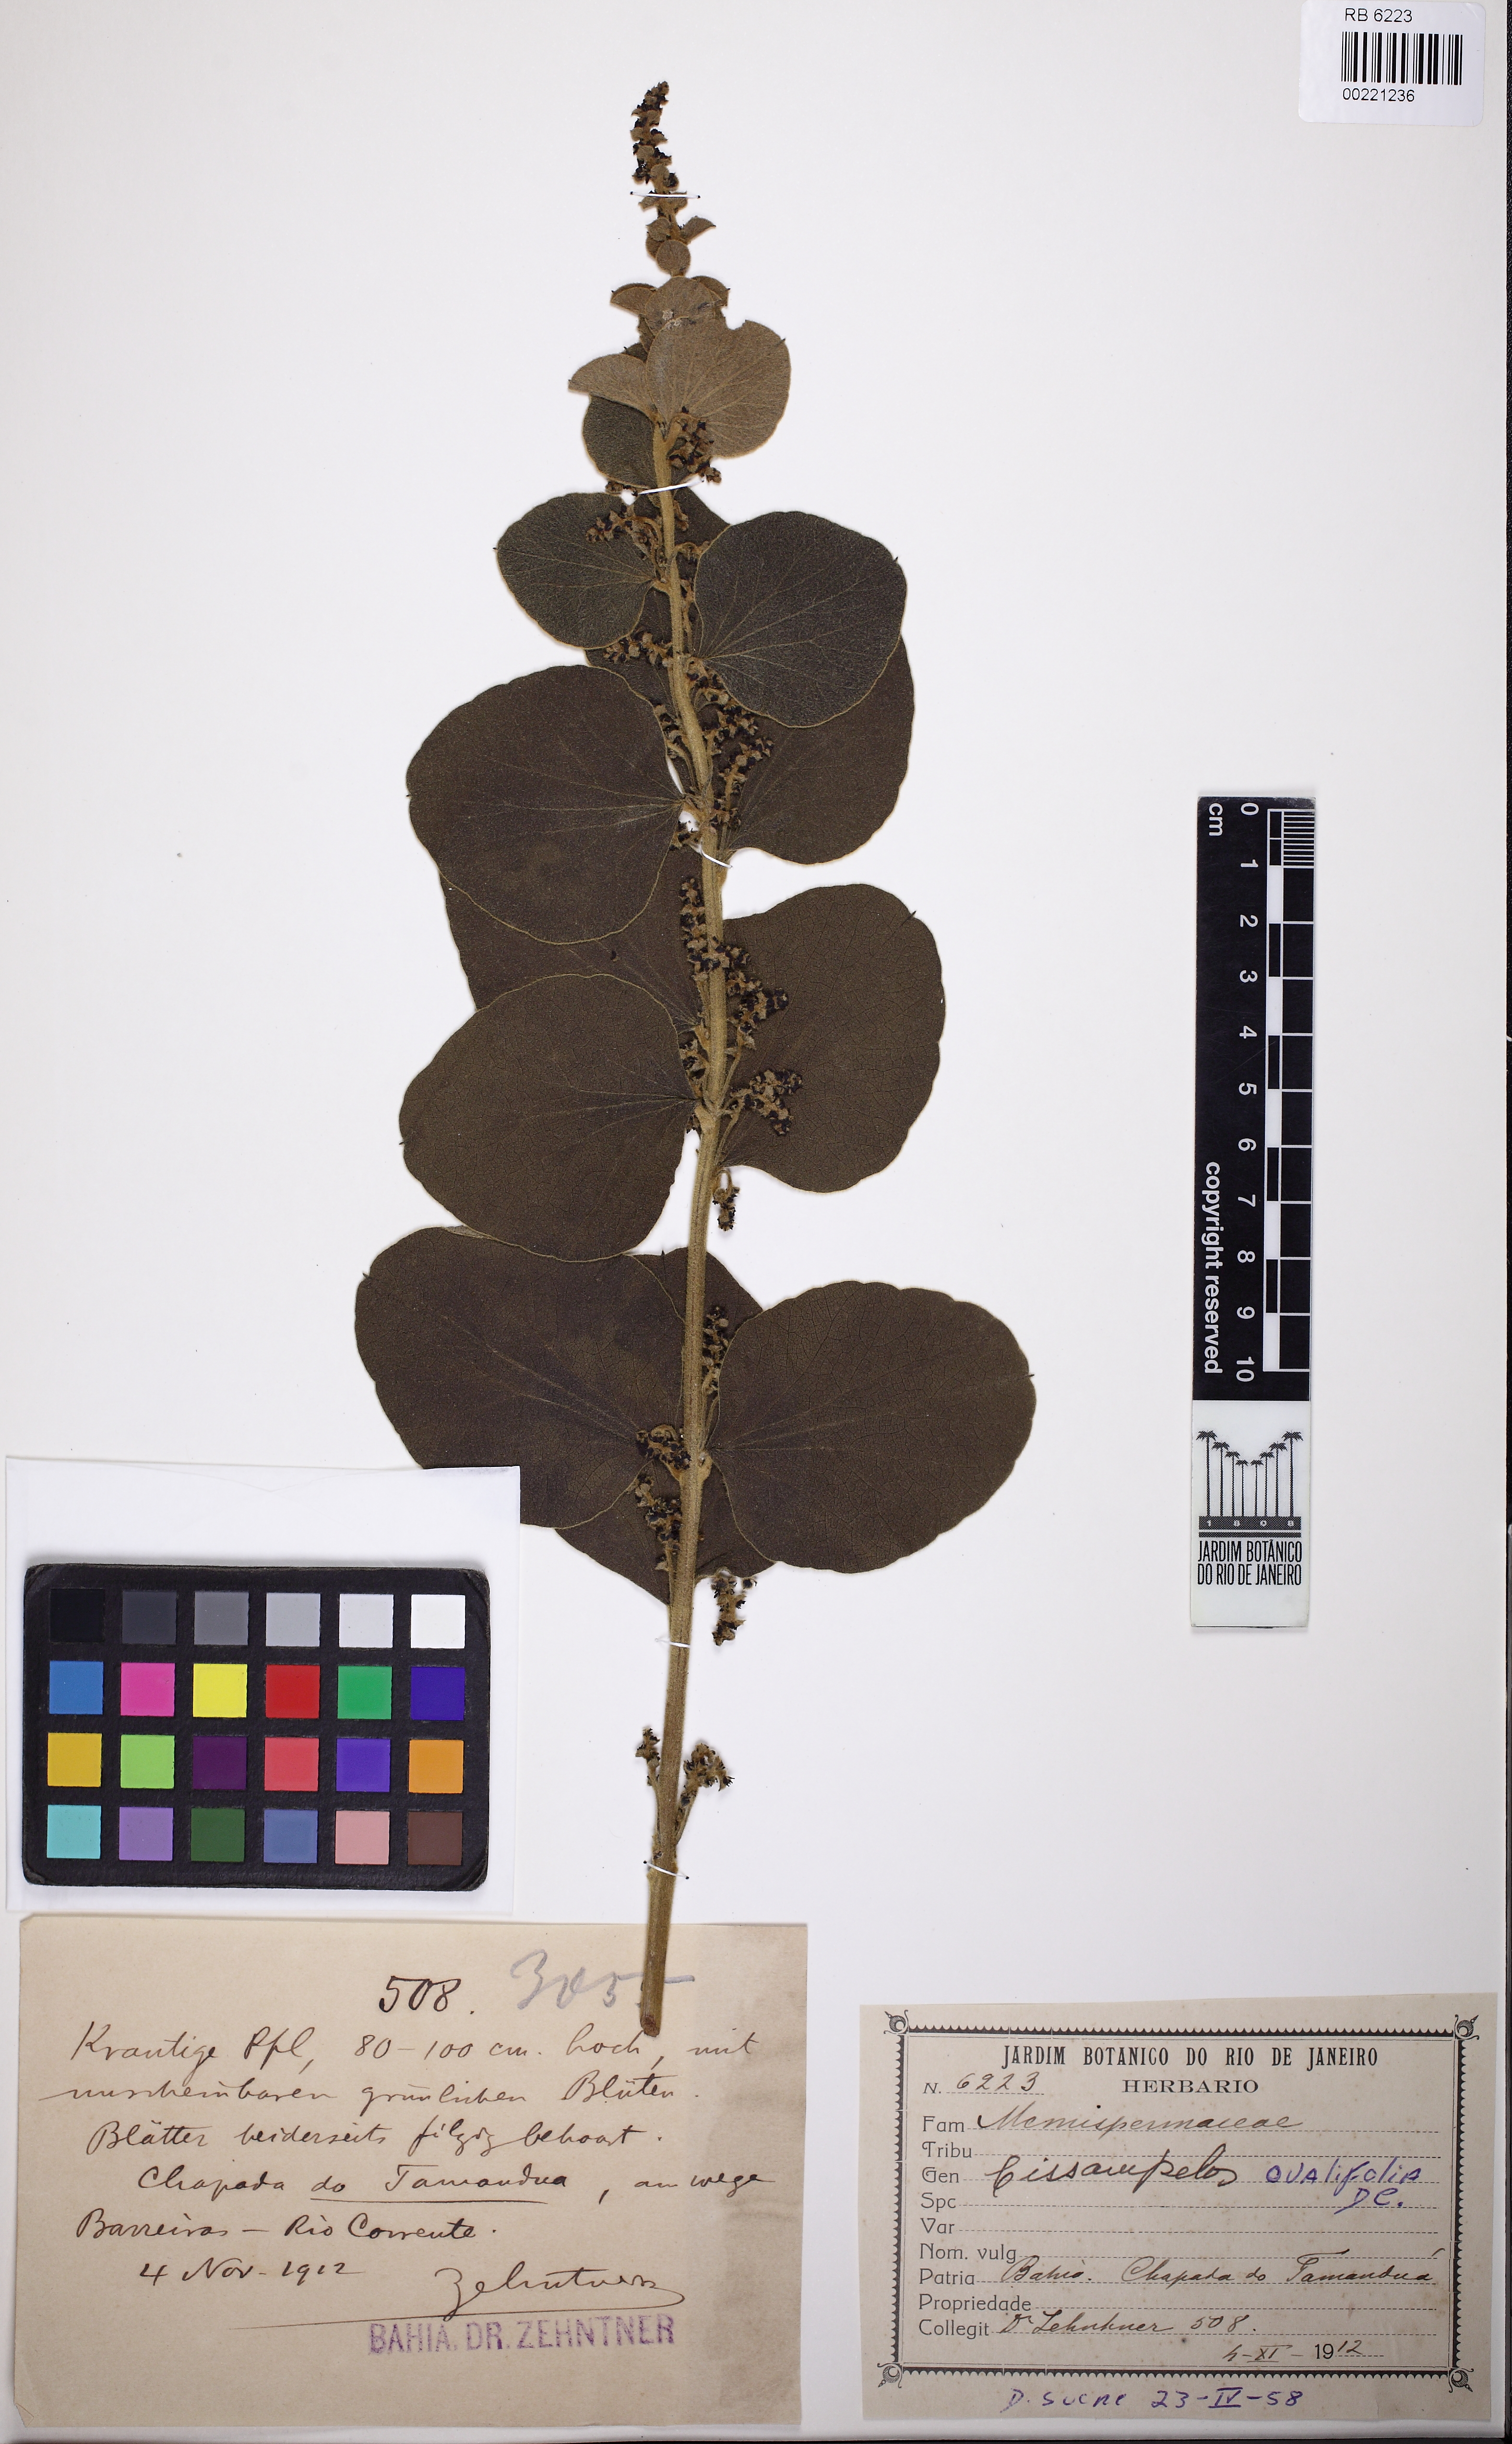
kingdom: Plantae
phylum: Tracheophyta
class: Magnoliopsida
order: Ranunculales
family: Menispermaceae
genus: Cissampelos
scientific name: Cissampelos ovalifolia
